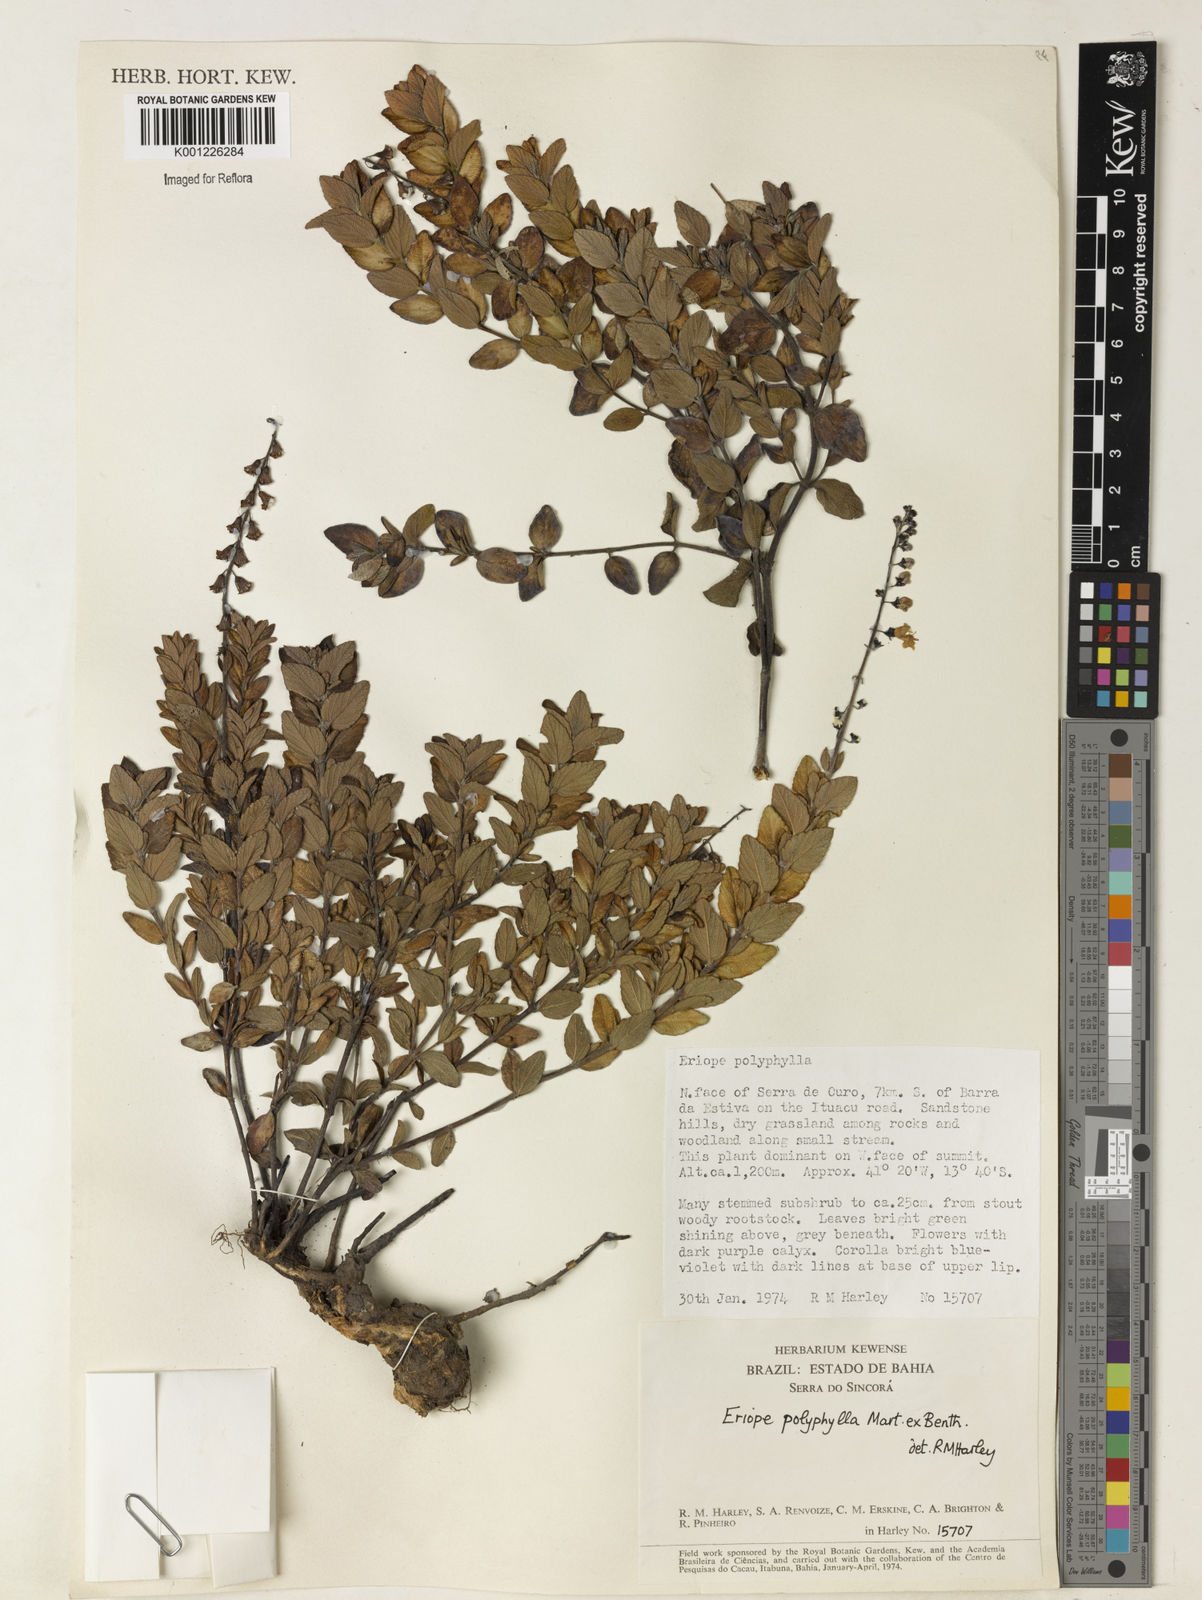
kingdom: Plantae
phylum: Tracheophyta
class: Magnoliopsida
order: Lamiales
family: Lamiaceae
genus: Eriope
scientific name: Eriope polyphylla
